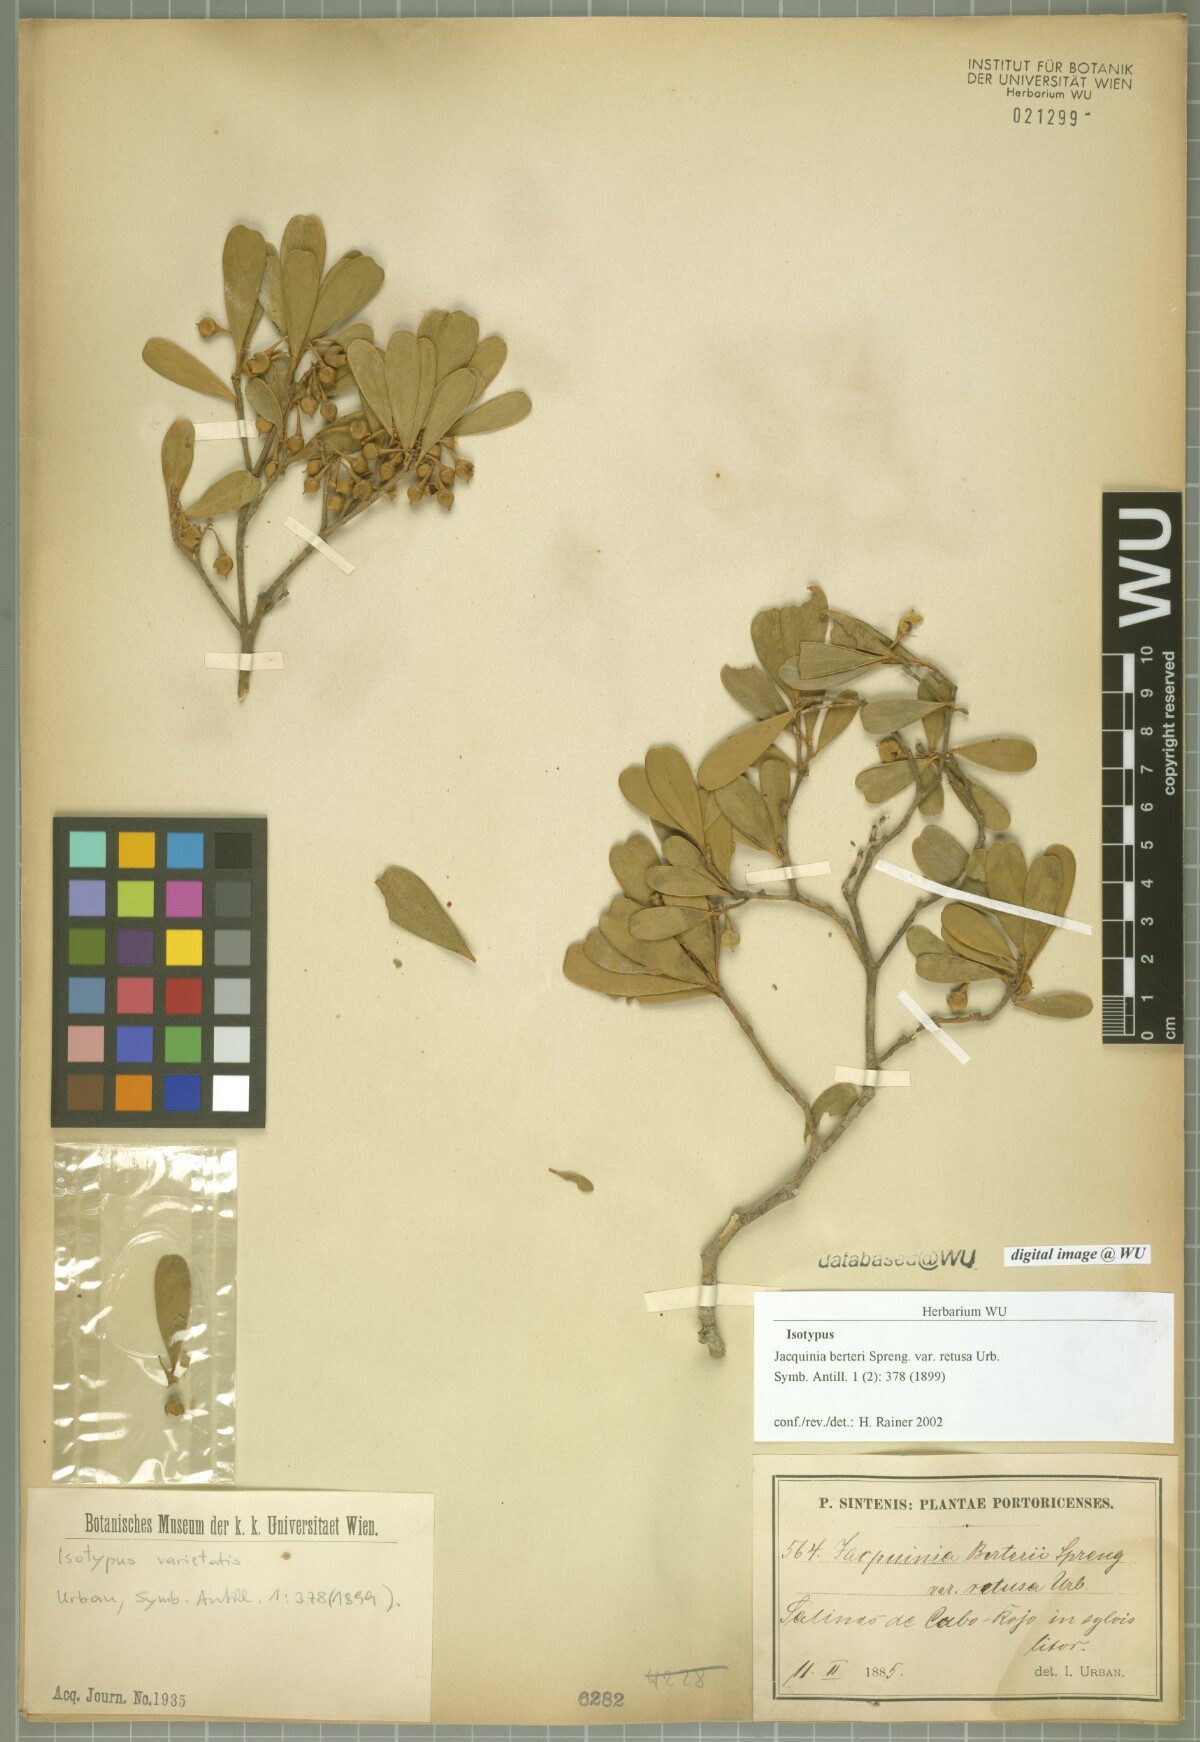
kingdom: Plantae
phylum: Tracheophyta
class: Magnoliopsida
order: Ericales
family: Primulaceae
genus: Jacquinia
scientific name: Jacquinia berteroi
